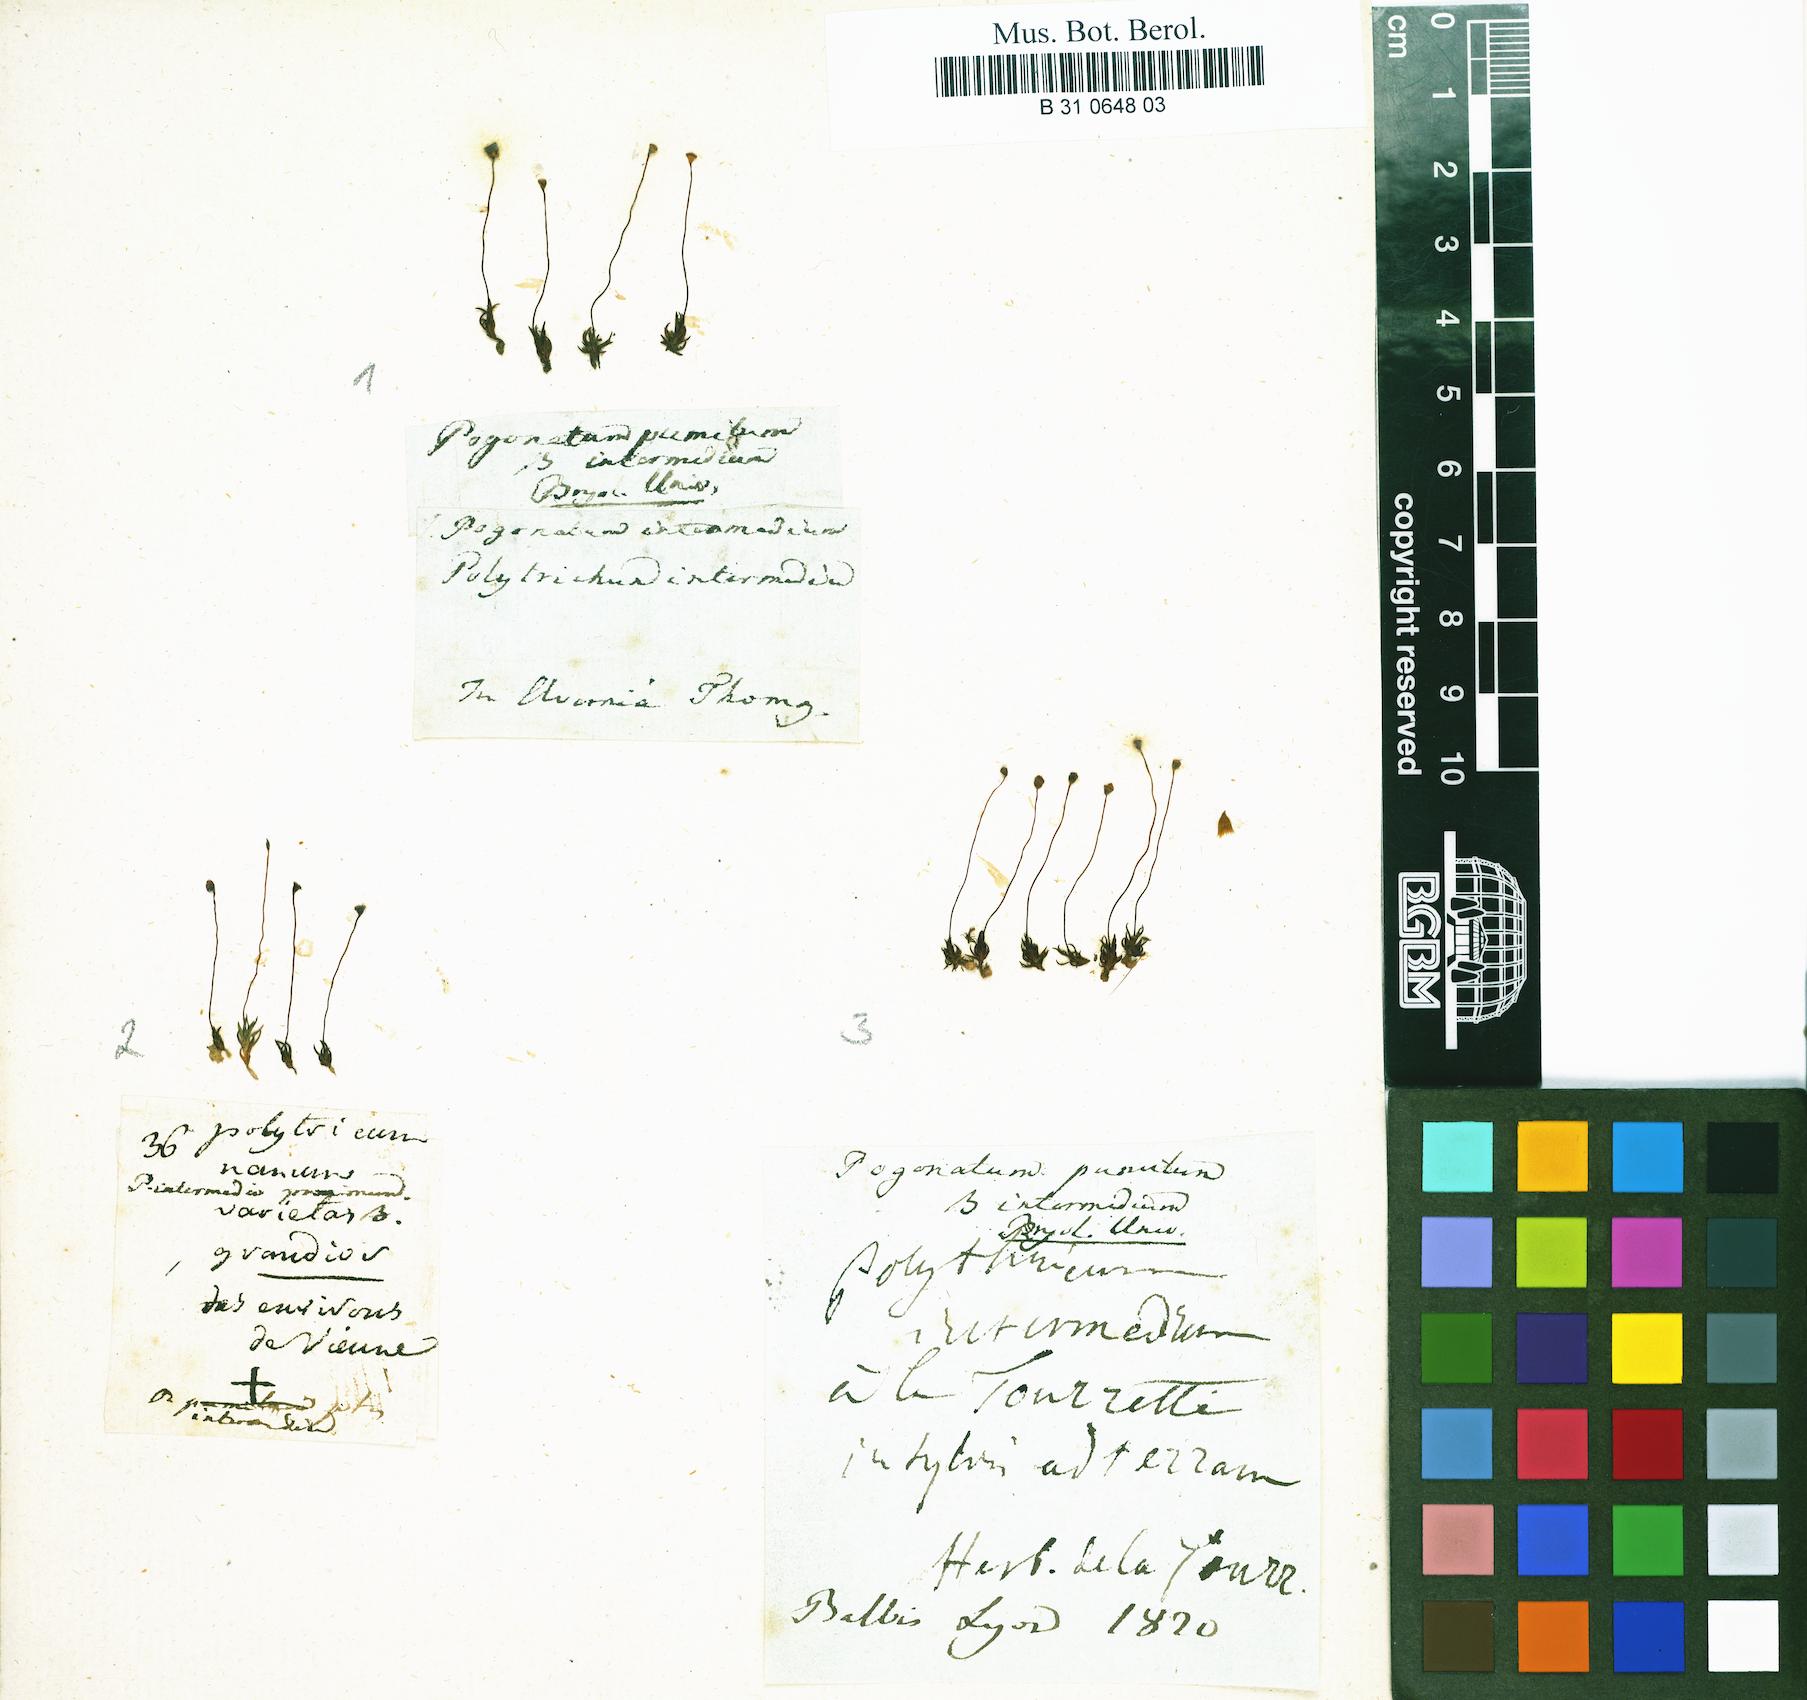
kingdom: Plantae
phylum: Bryophyta
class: Polytrichopsida
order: Polytrichales
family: Polytrichaceae
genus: Pogonatum
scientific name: Pogonatum aloides
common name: Aloe haircap
